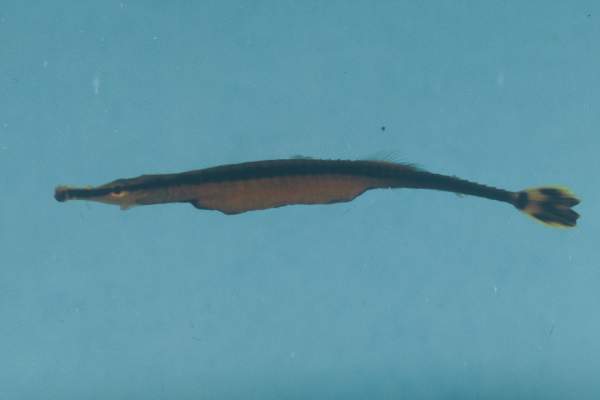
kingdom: Animalia
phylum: Chordata
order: Syngnathiformes
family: Syngnathidae
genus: Doryrhamphus
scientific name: Doryrhamphus excisus
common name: Bluestripe pipefish
